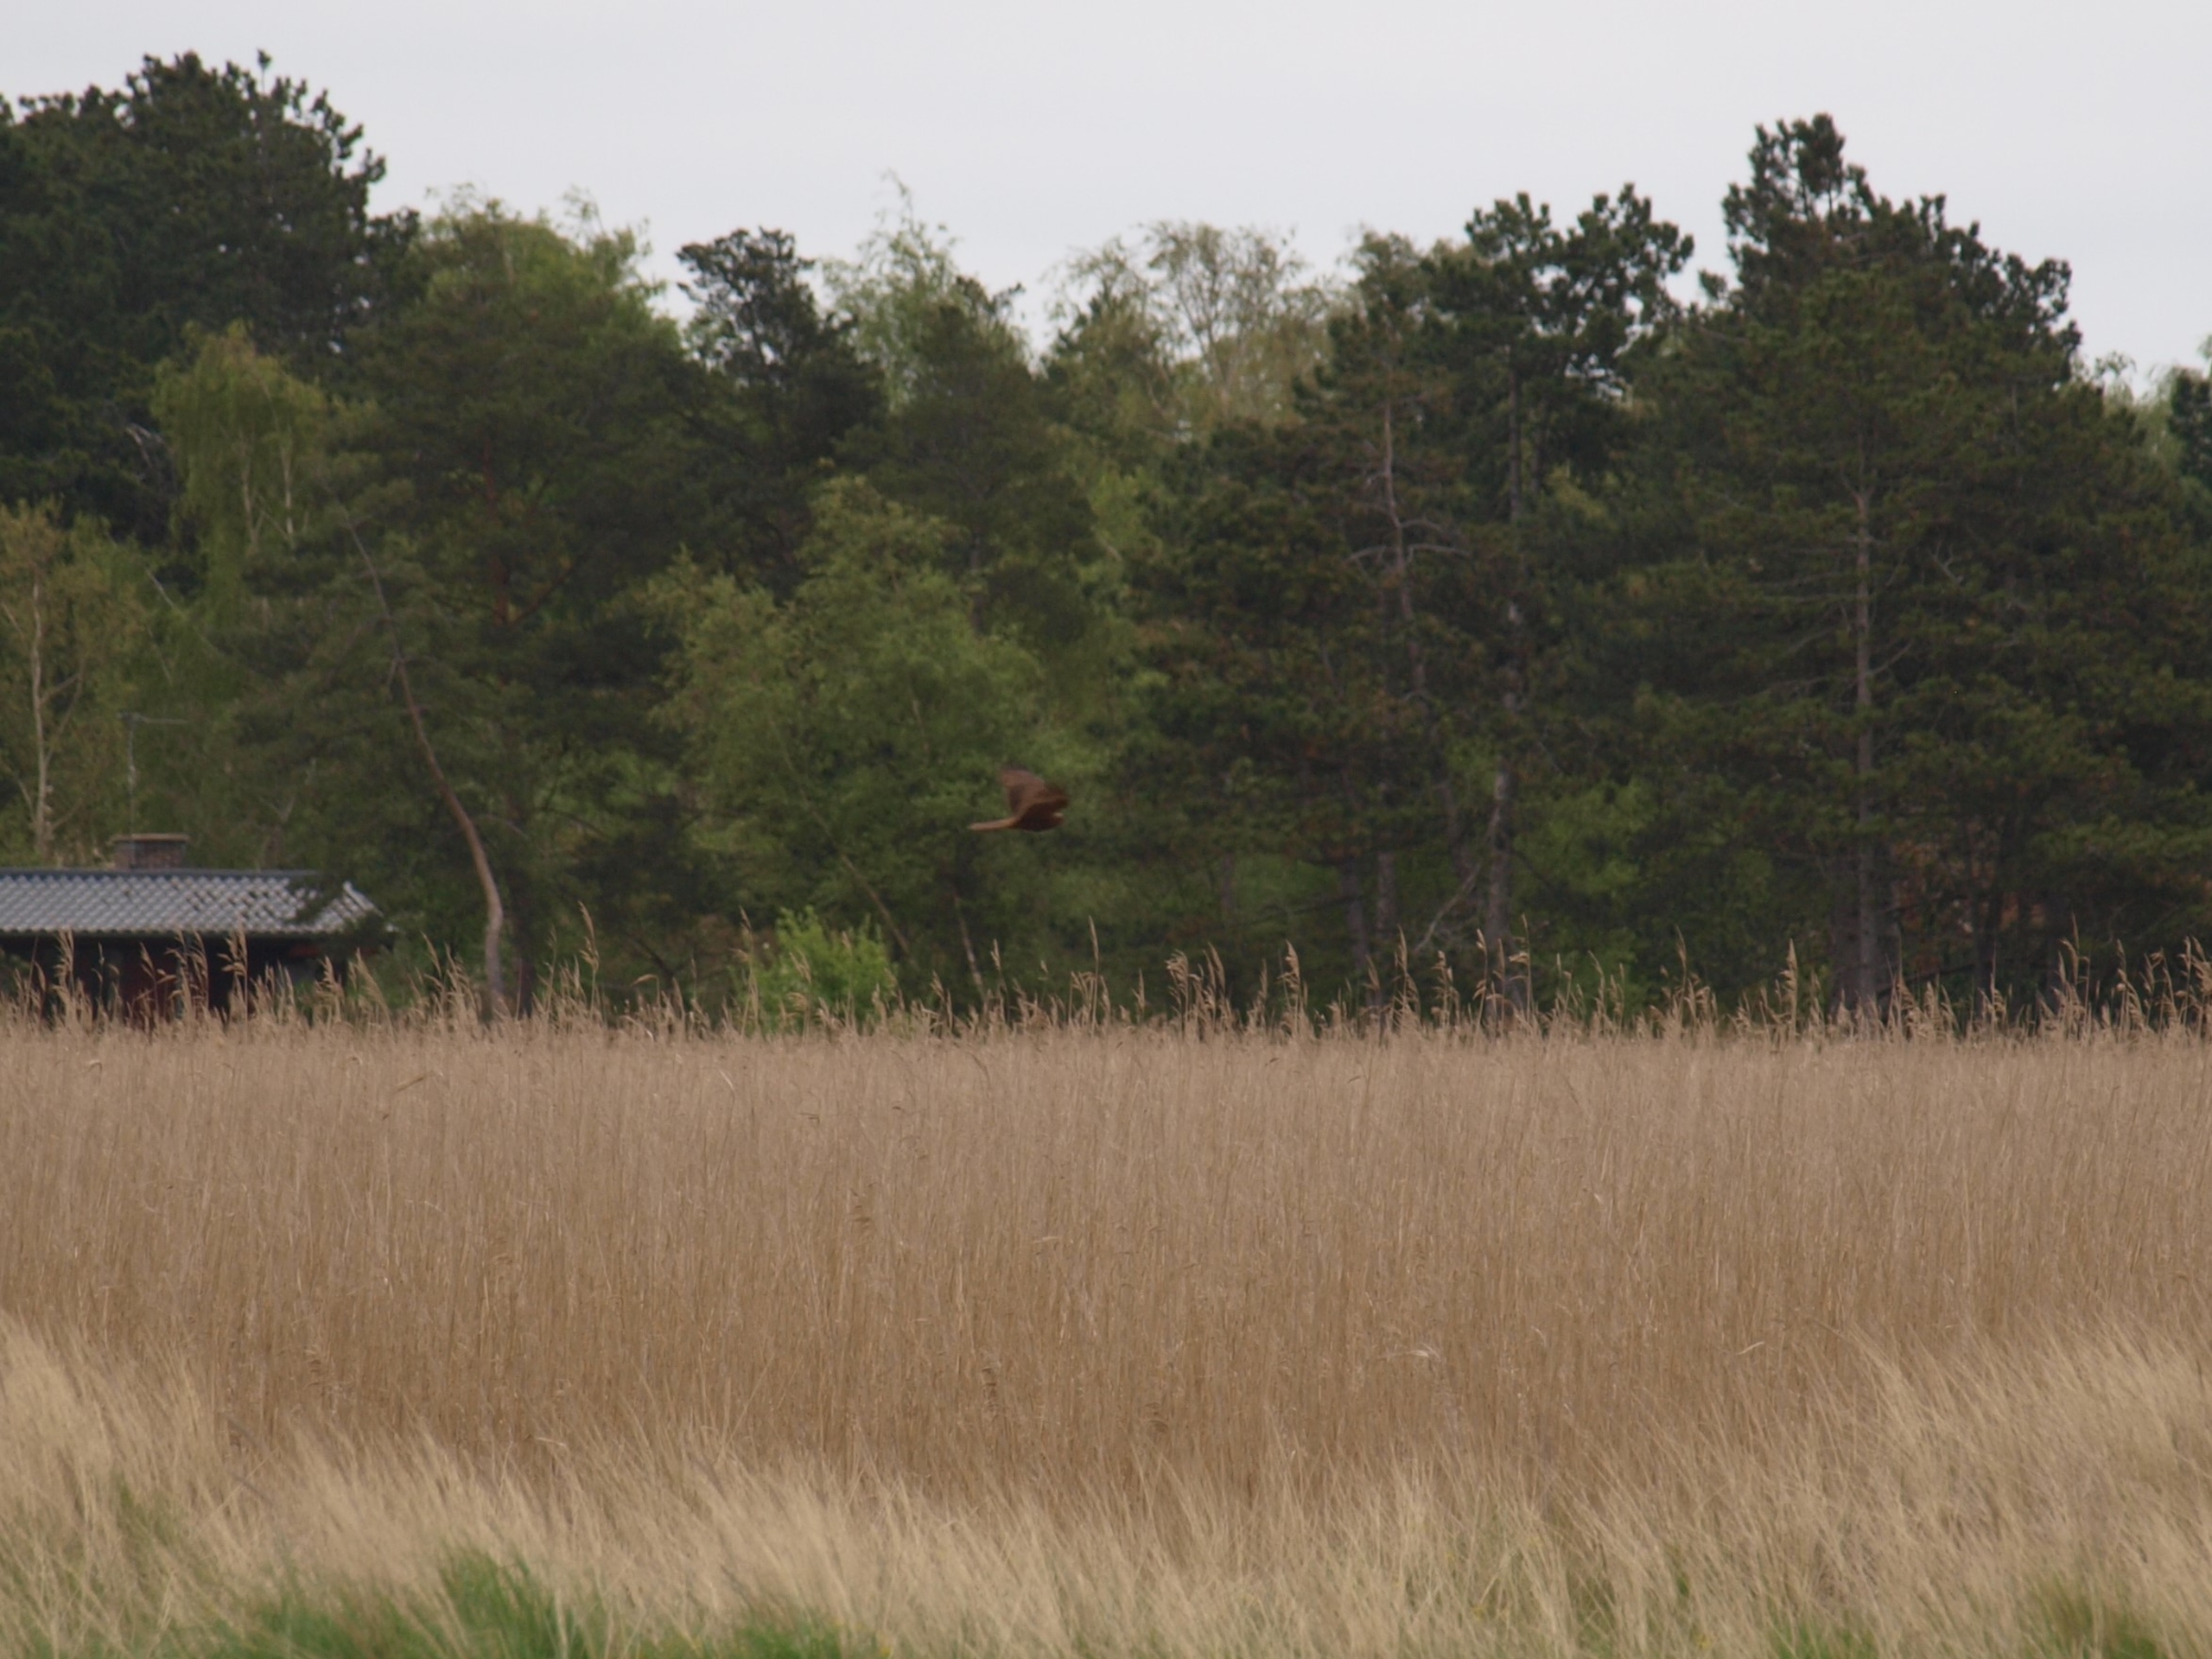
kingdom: Animalia
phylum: Chordata
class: Aves
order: Accipitriformes
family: Accipitridae
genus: Circus
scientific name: Circus aeruginosus
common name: Rørhøg
